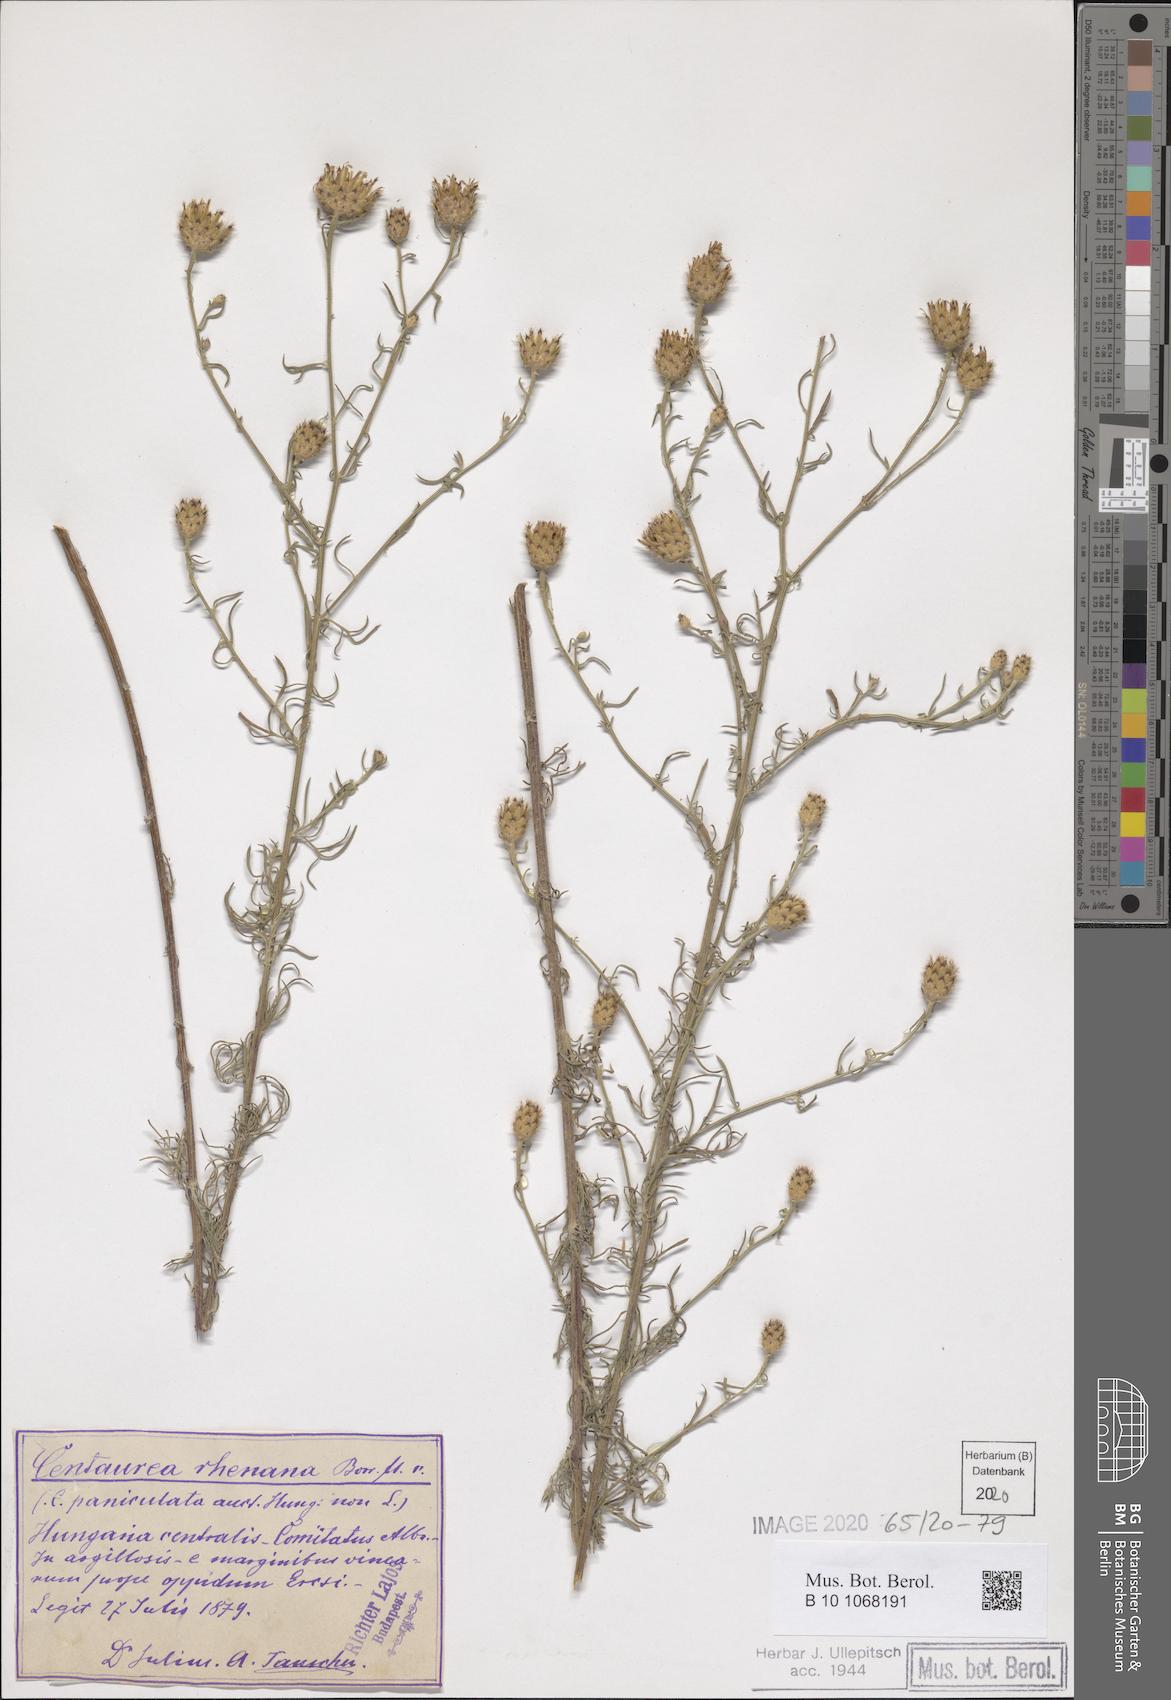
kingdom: Plantae
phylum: Tracheophyta
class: Magnoliopsida
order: Asterales
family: Asteraceae
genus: Centaurea
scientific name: Centaurea stoebe
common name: Spotted knapweed
